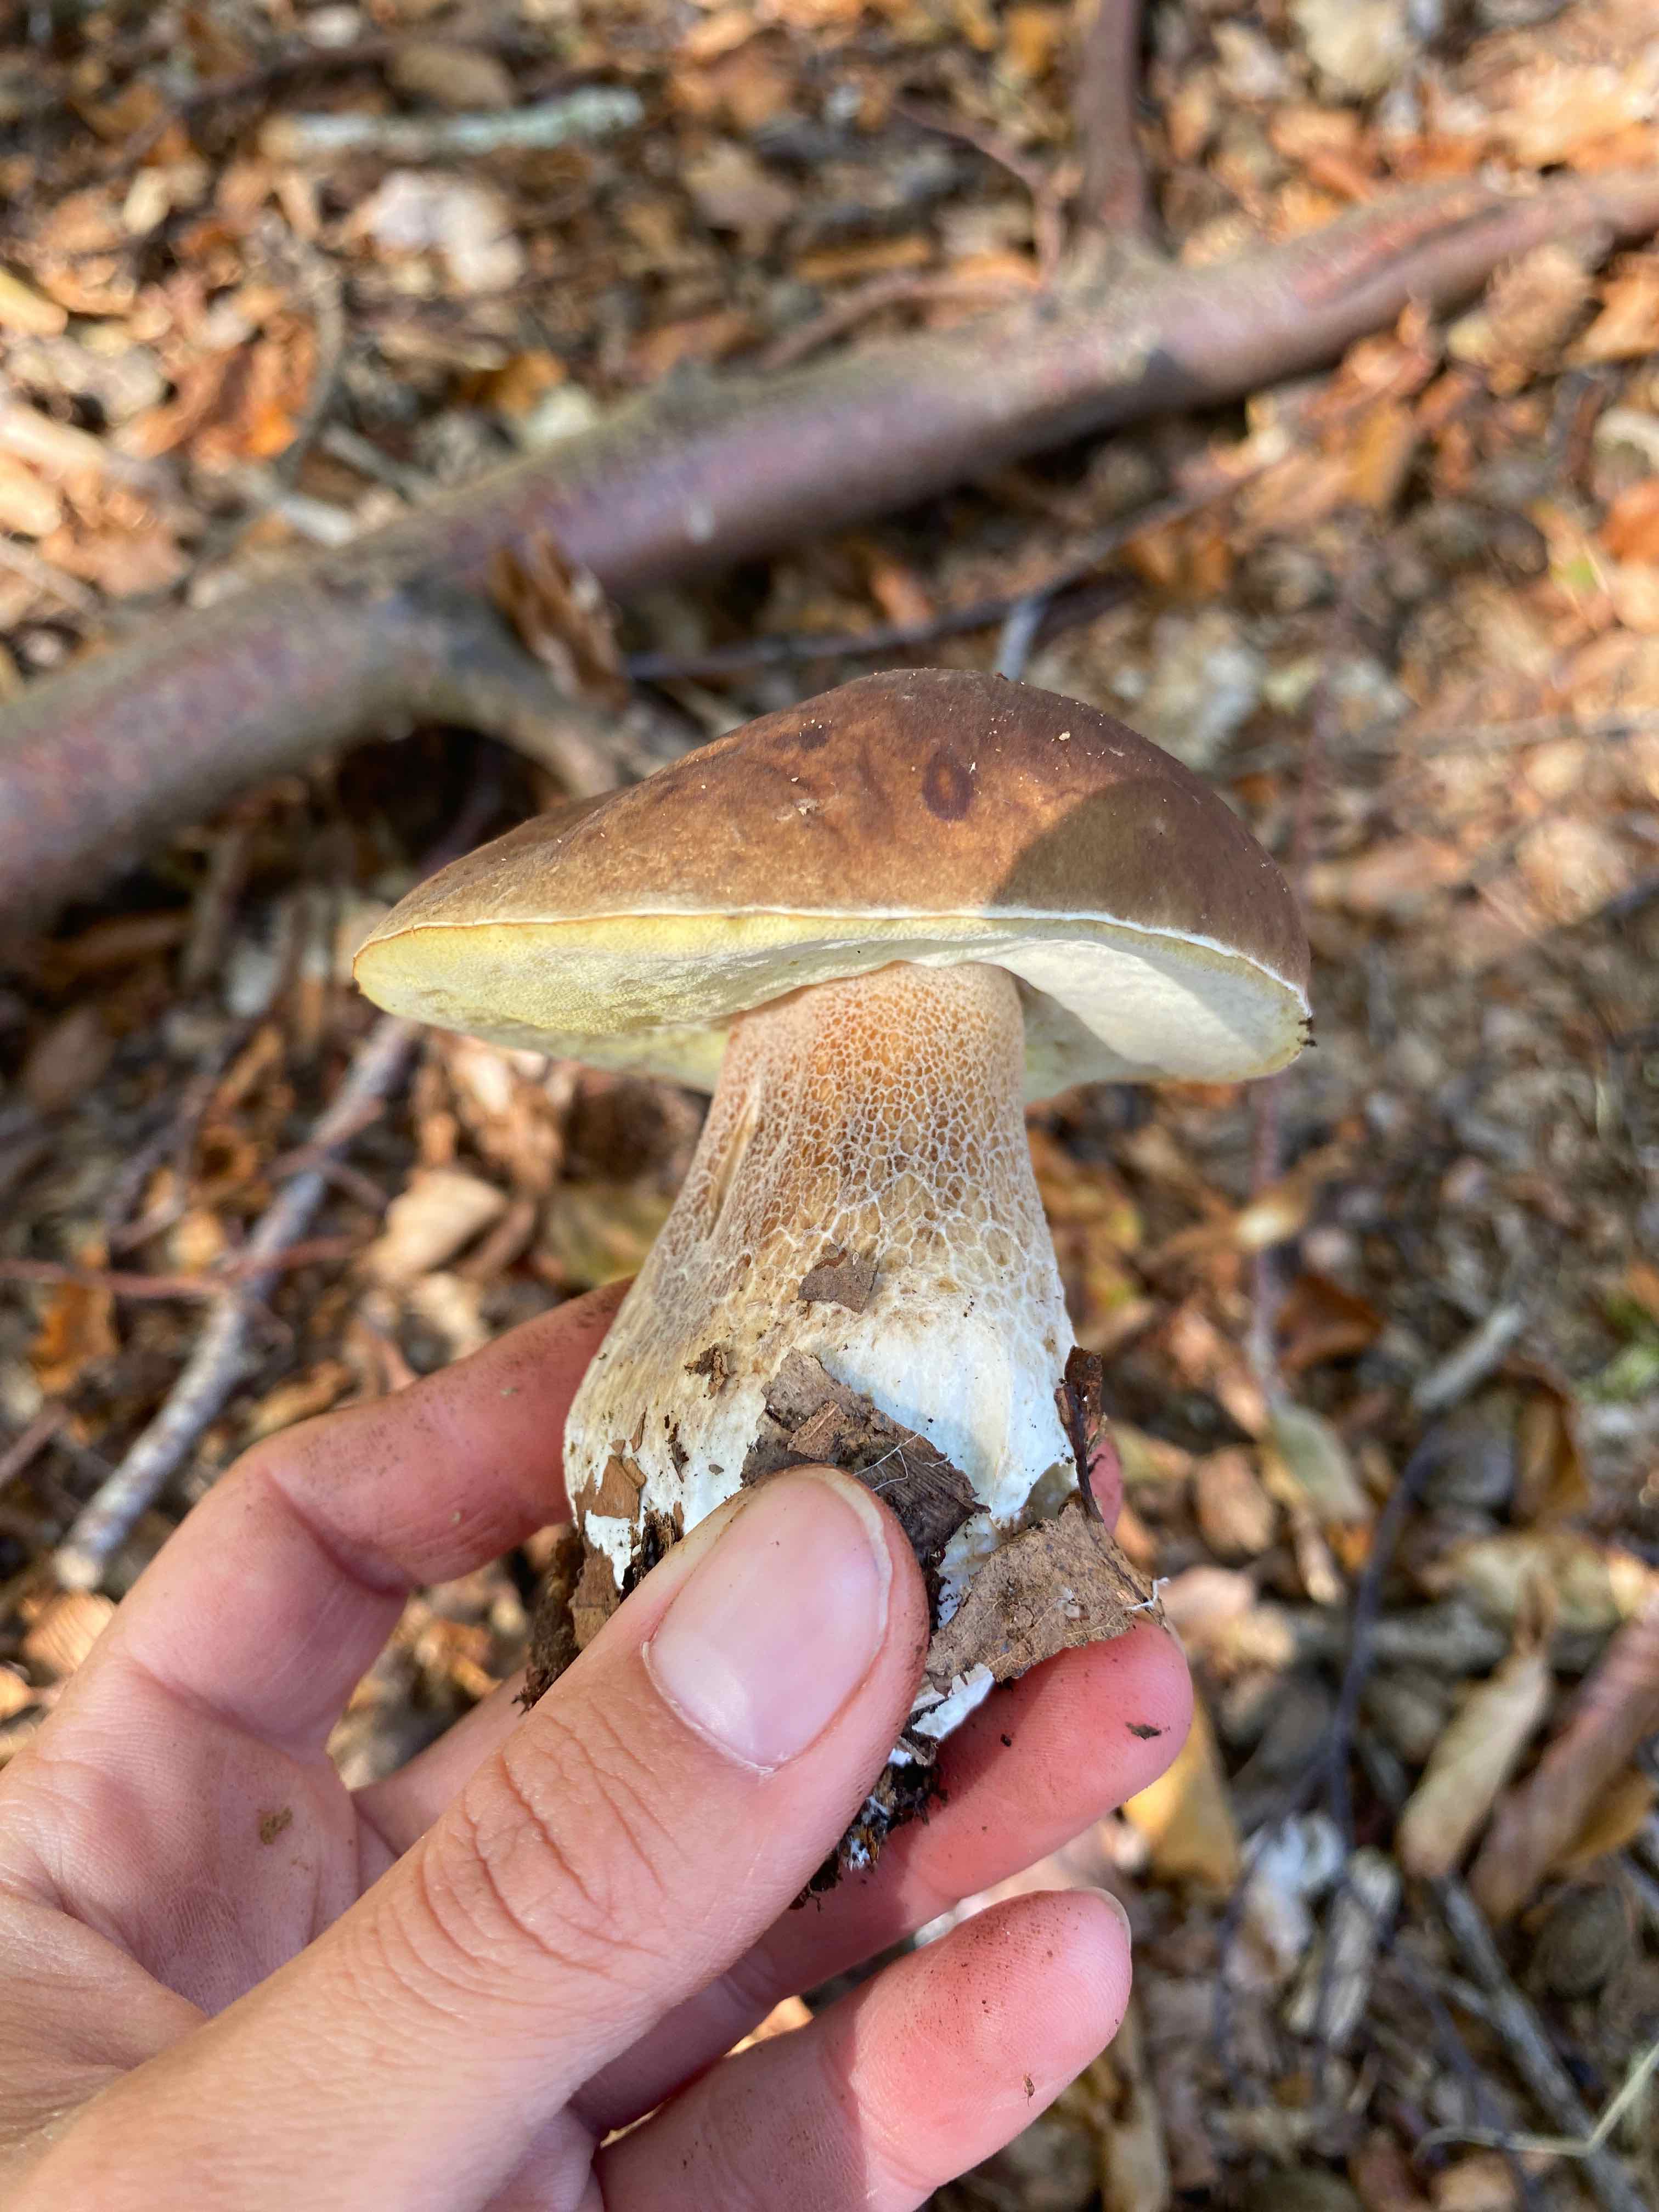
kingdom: Fungi
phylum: Basidiomycota
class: Agaricomycetes
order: Boletales
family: Boletaceae
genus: Boletus
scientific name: Boletus edulis
